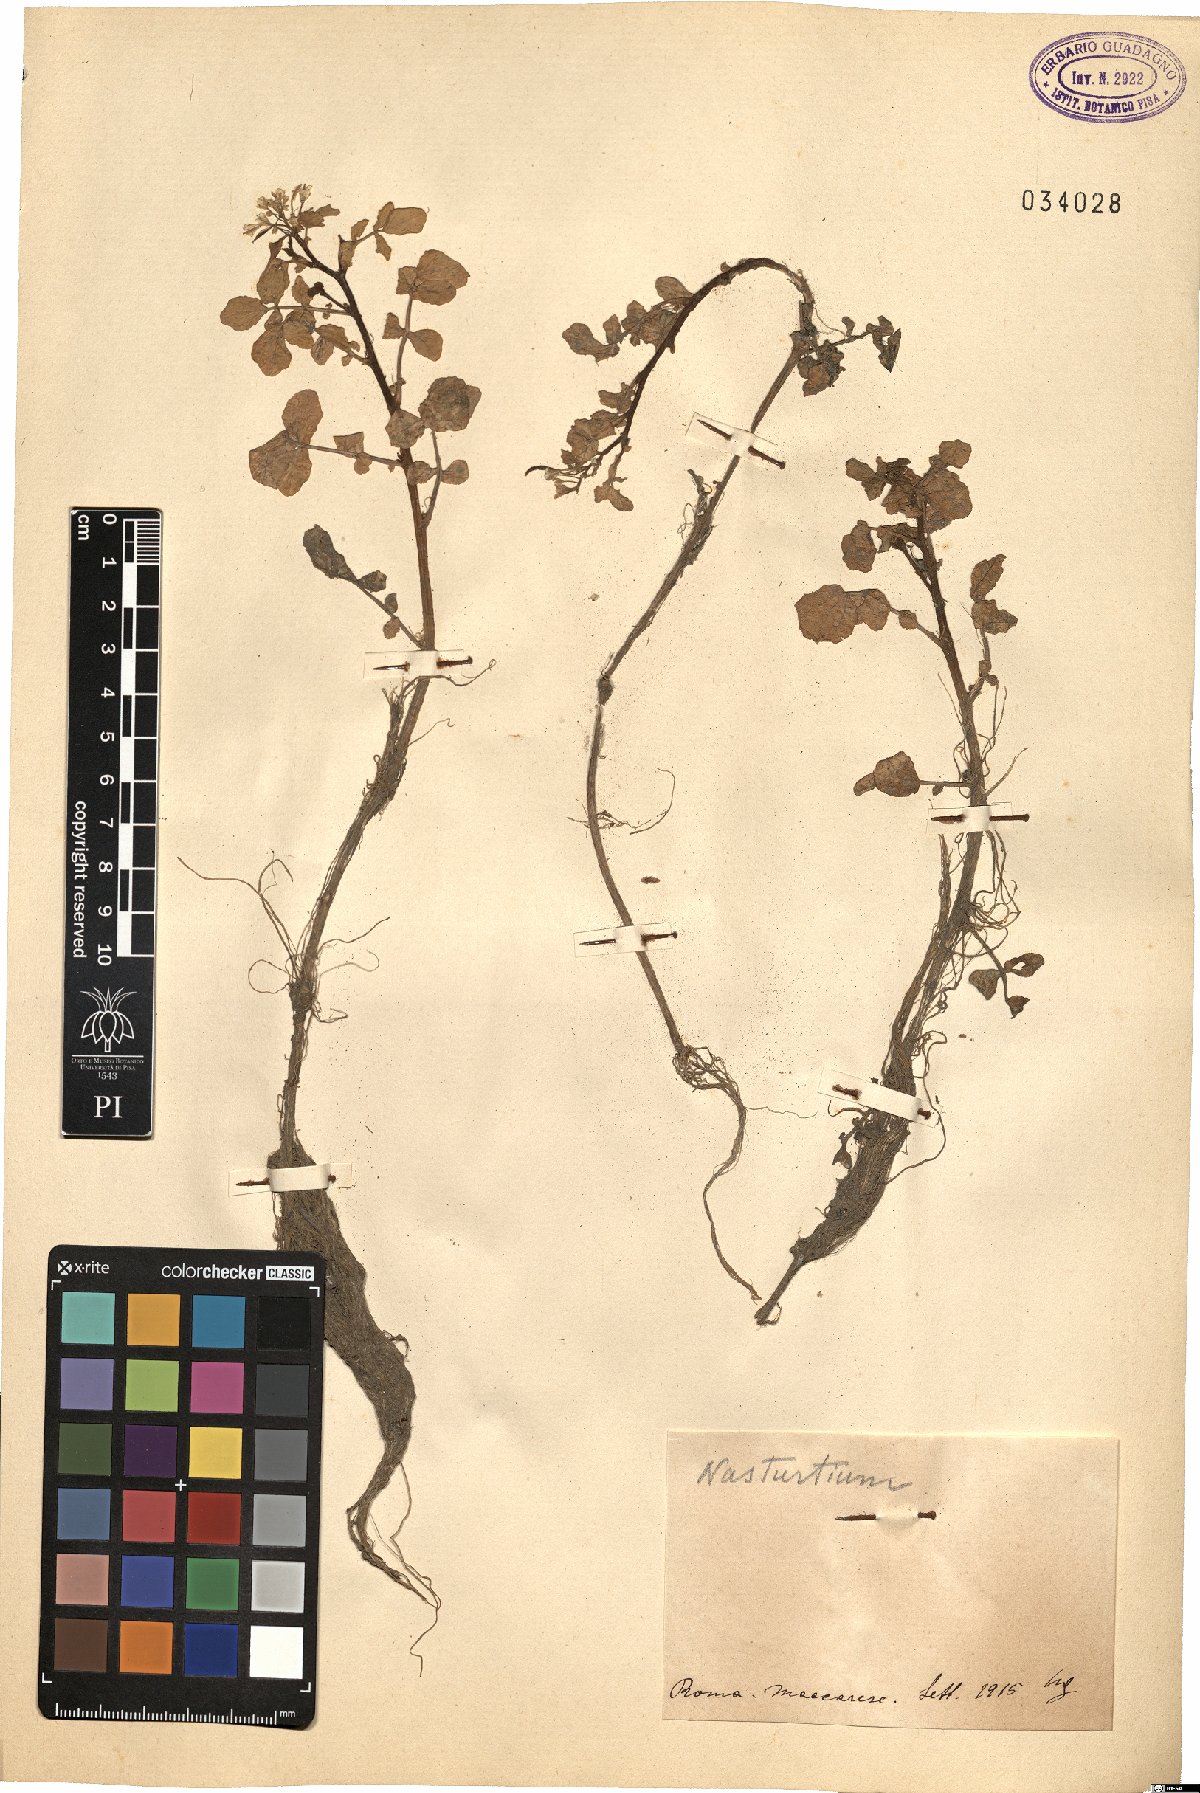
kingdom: Plantae
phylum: Tracheophyta
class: Magnoliopsida
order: Brassicales
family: Brassicaceae
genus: Nasturtium
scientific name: Nasturtium
